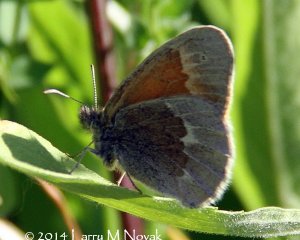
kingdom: Animalia
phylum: Arthropoda
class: Insecta
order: Lepidoptera
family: Nymphalidae
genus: Coenonympha
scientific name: Coenonympha tullia
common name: Large Heath
